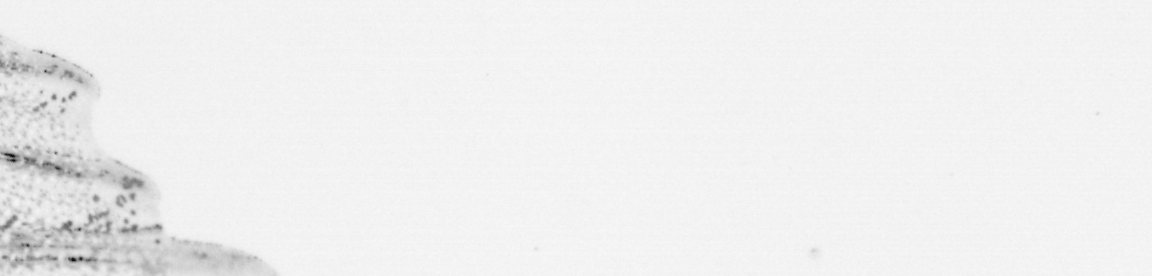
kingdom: Animalia
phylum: Chordata
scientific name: Chordata
